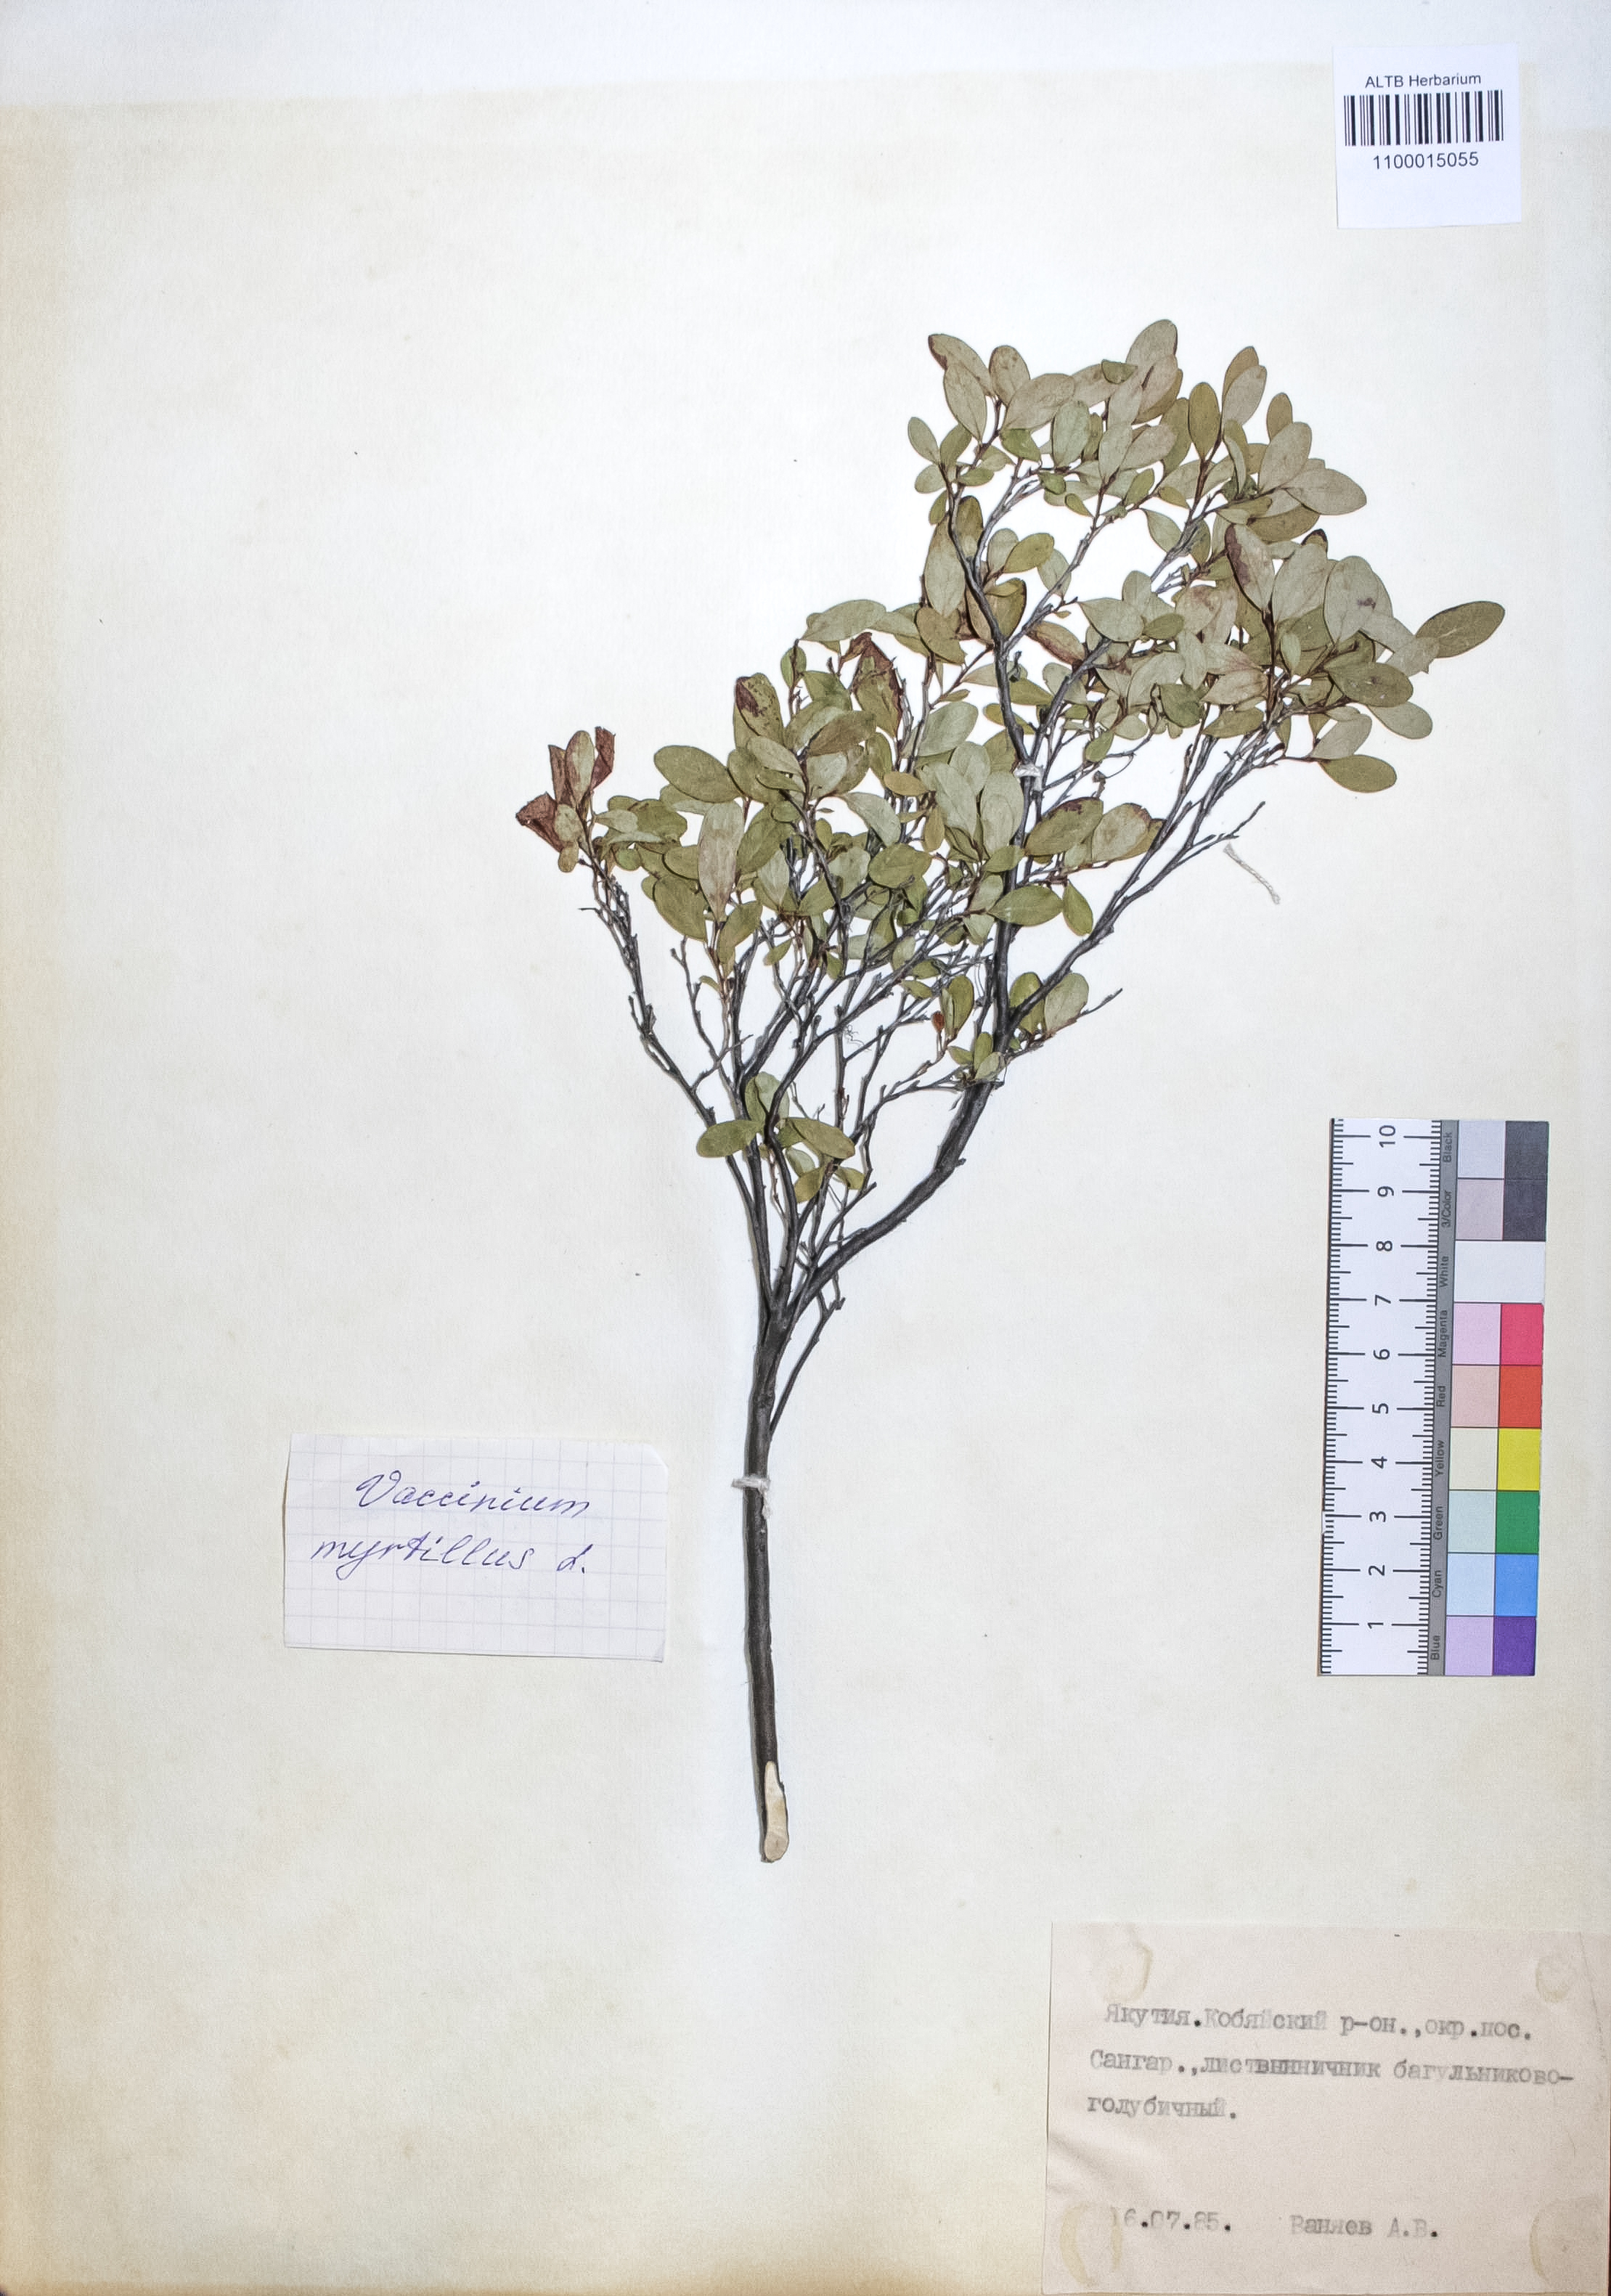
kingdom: Plantae
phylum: Tracheophyta
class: Magnoliopsida
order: Ericales
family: Ericaceae
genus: Vaccinium
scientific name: Vaccinium myrtillus
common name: Bilberry
